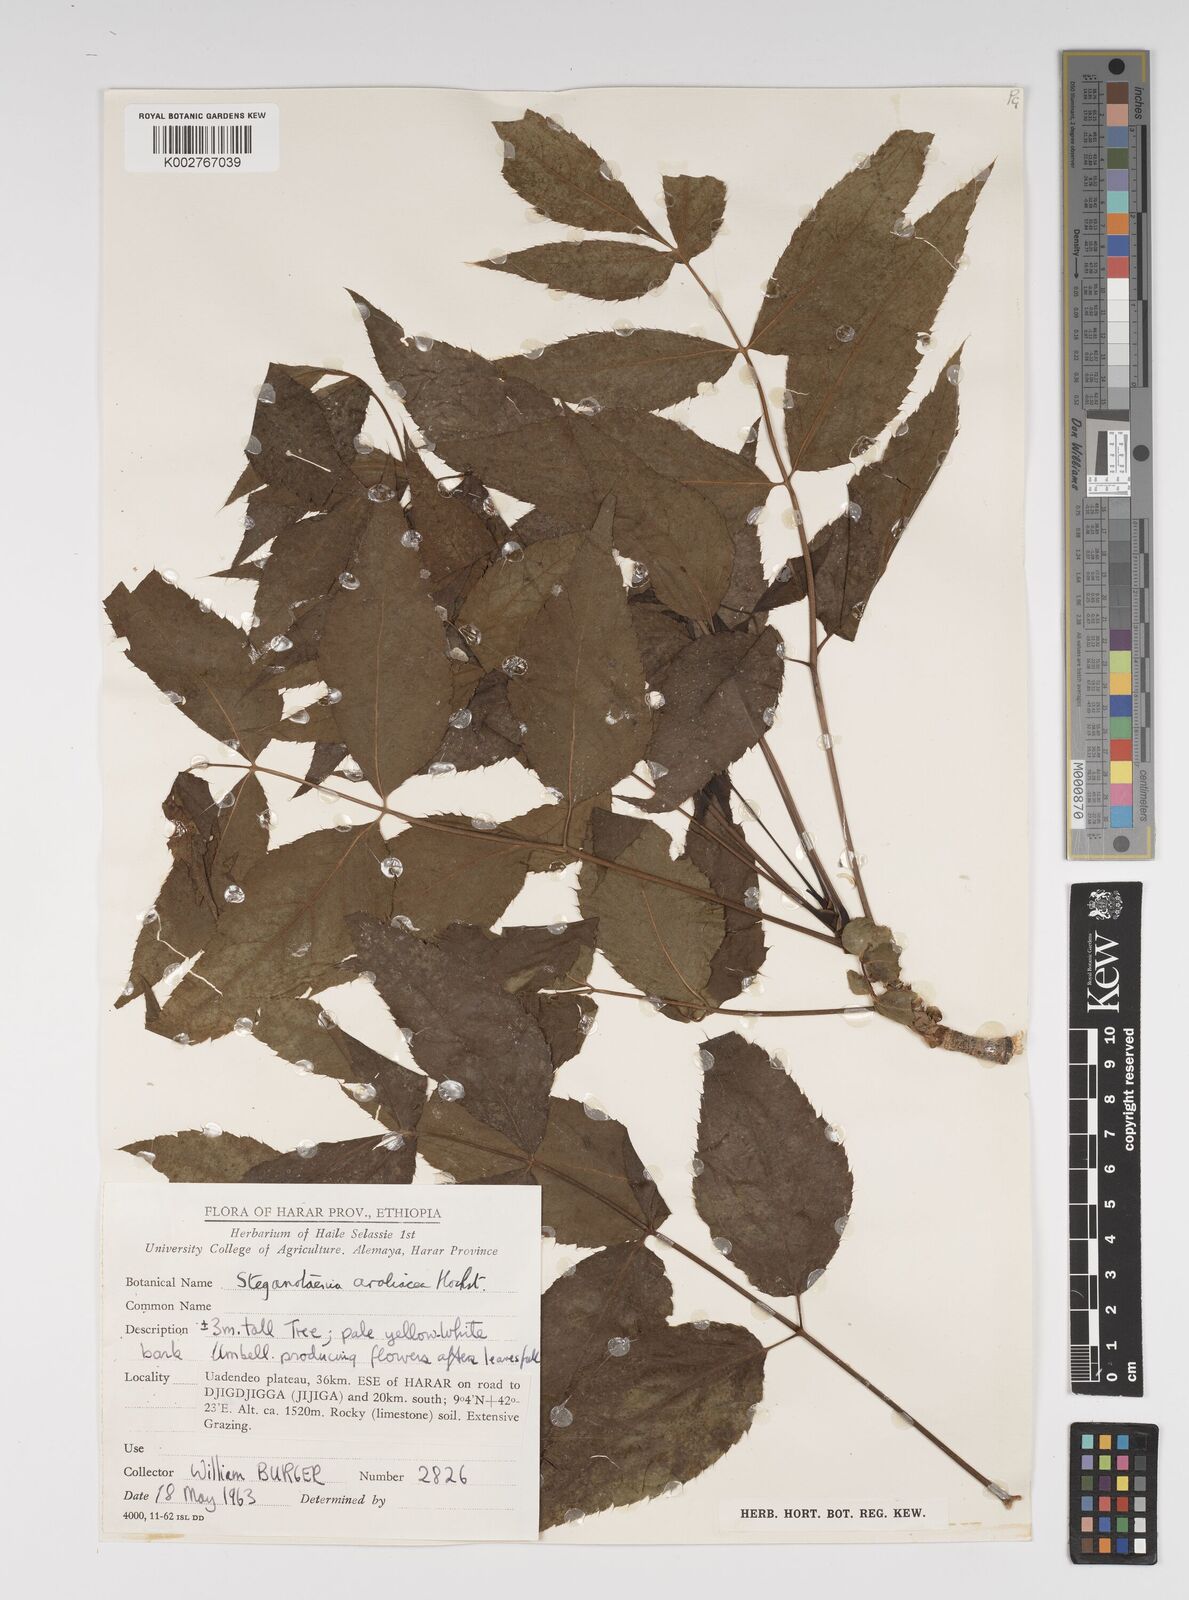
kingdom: Plantae
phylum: Tracheophyta
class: Magnoliopsida
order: Apiales
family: Apiaceae
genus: Steganotaenia
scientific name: Steganotaenia araliacea
